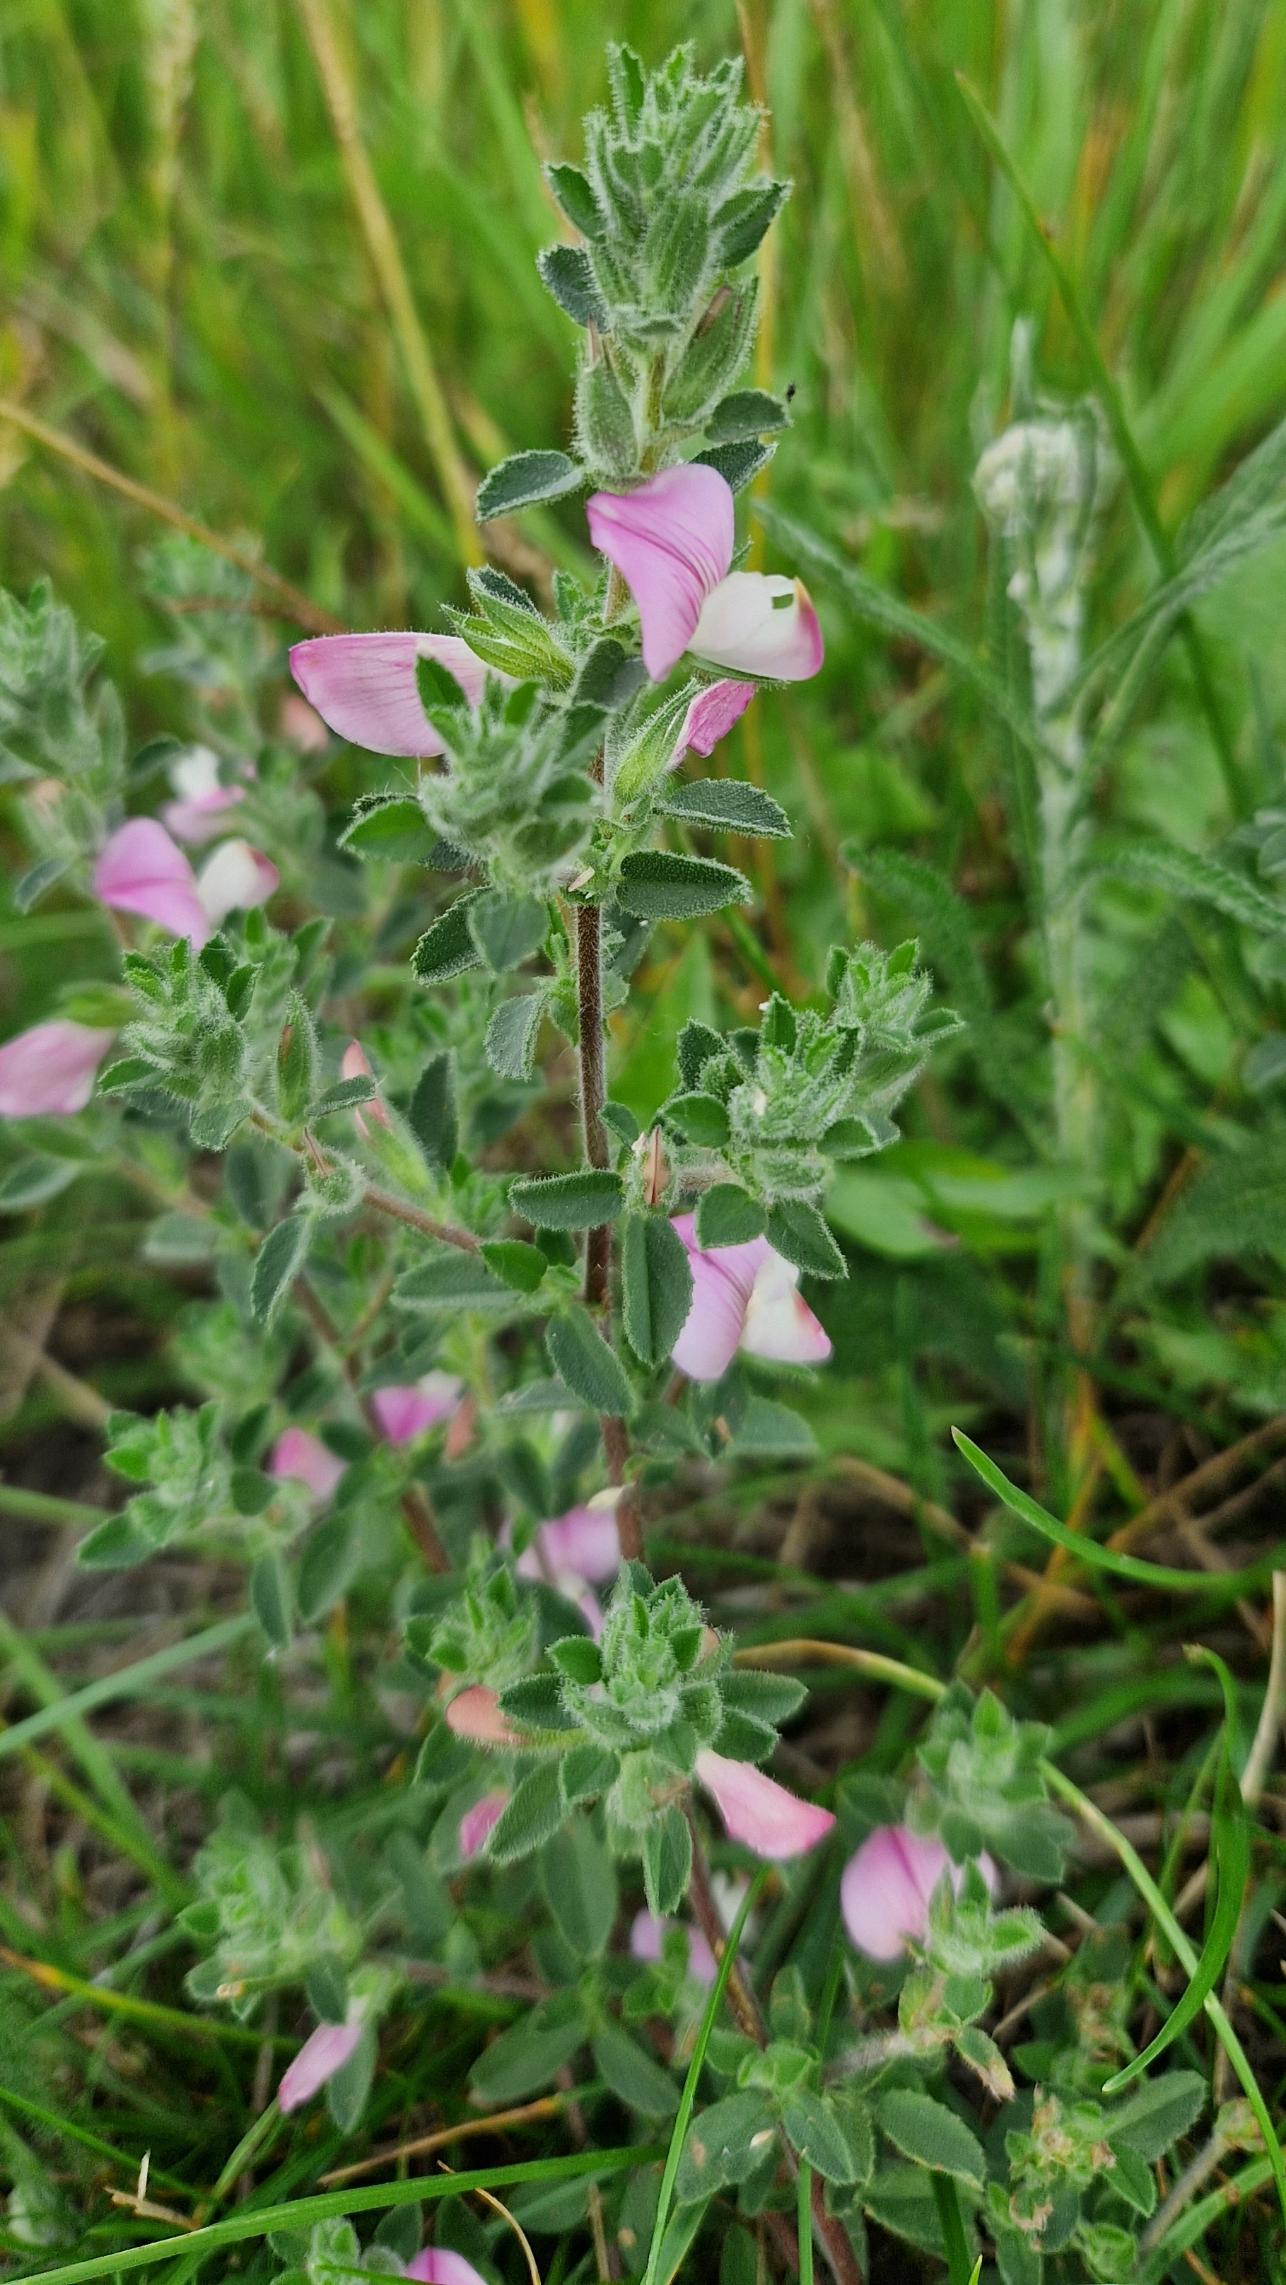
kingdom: Plantae
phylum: Tracheophyta
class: Magnoliopsida
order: Fabales
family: Fabaceae
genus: Ononis
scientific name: Ononis spinosa
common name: Mark-krageklo
